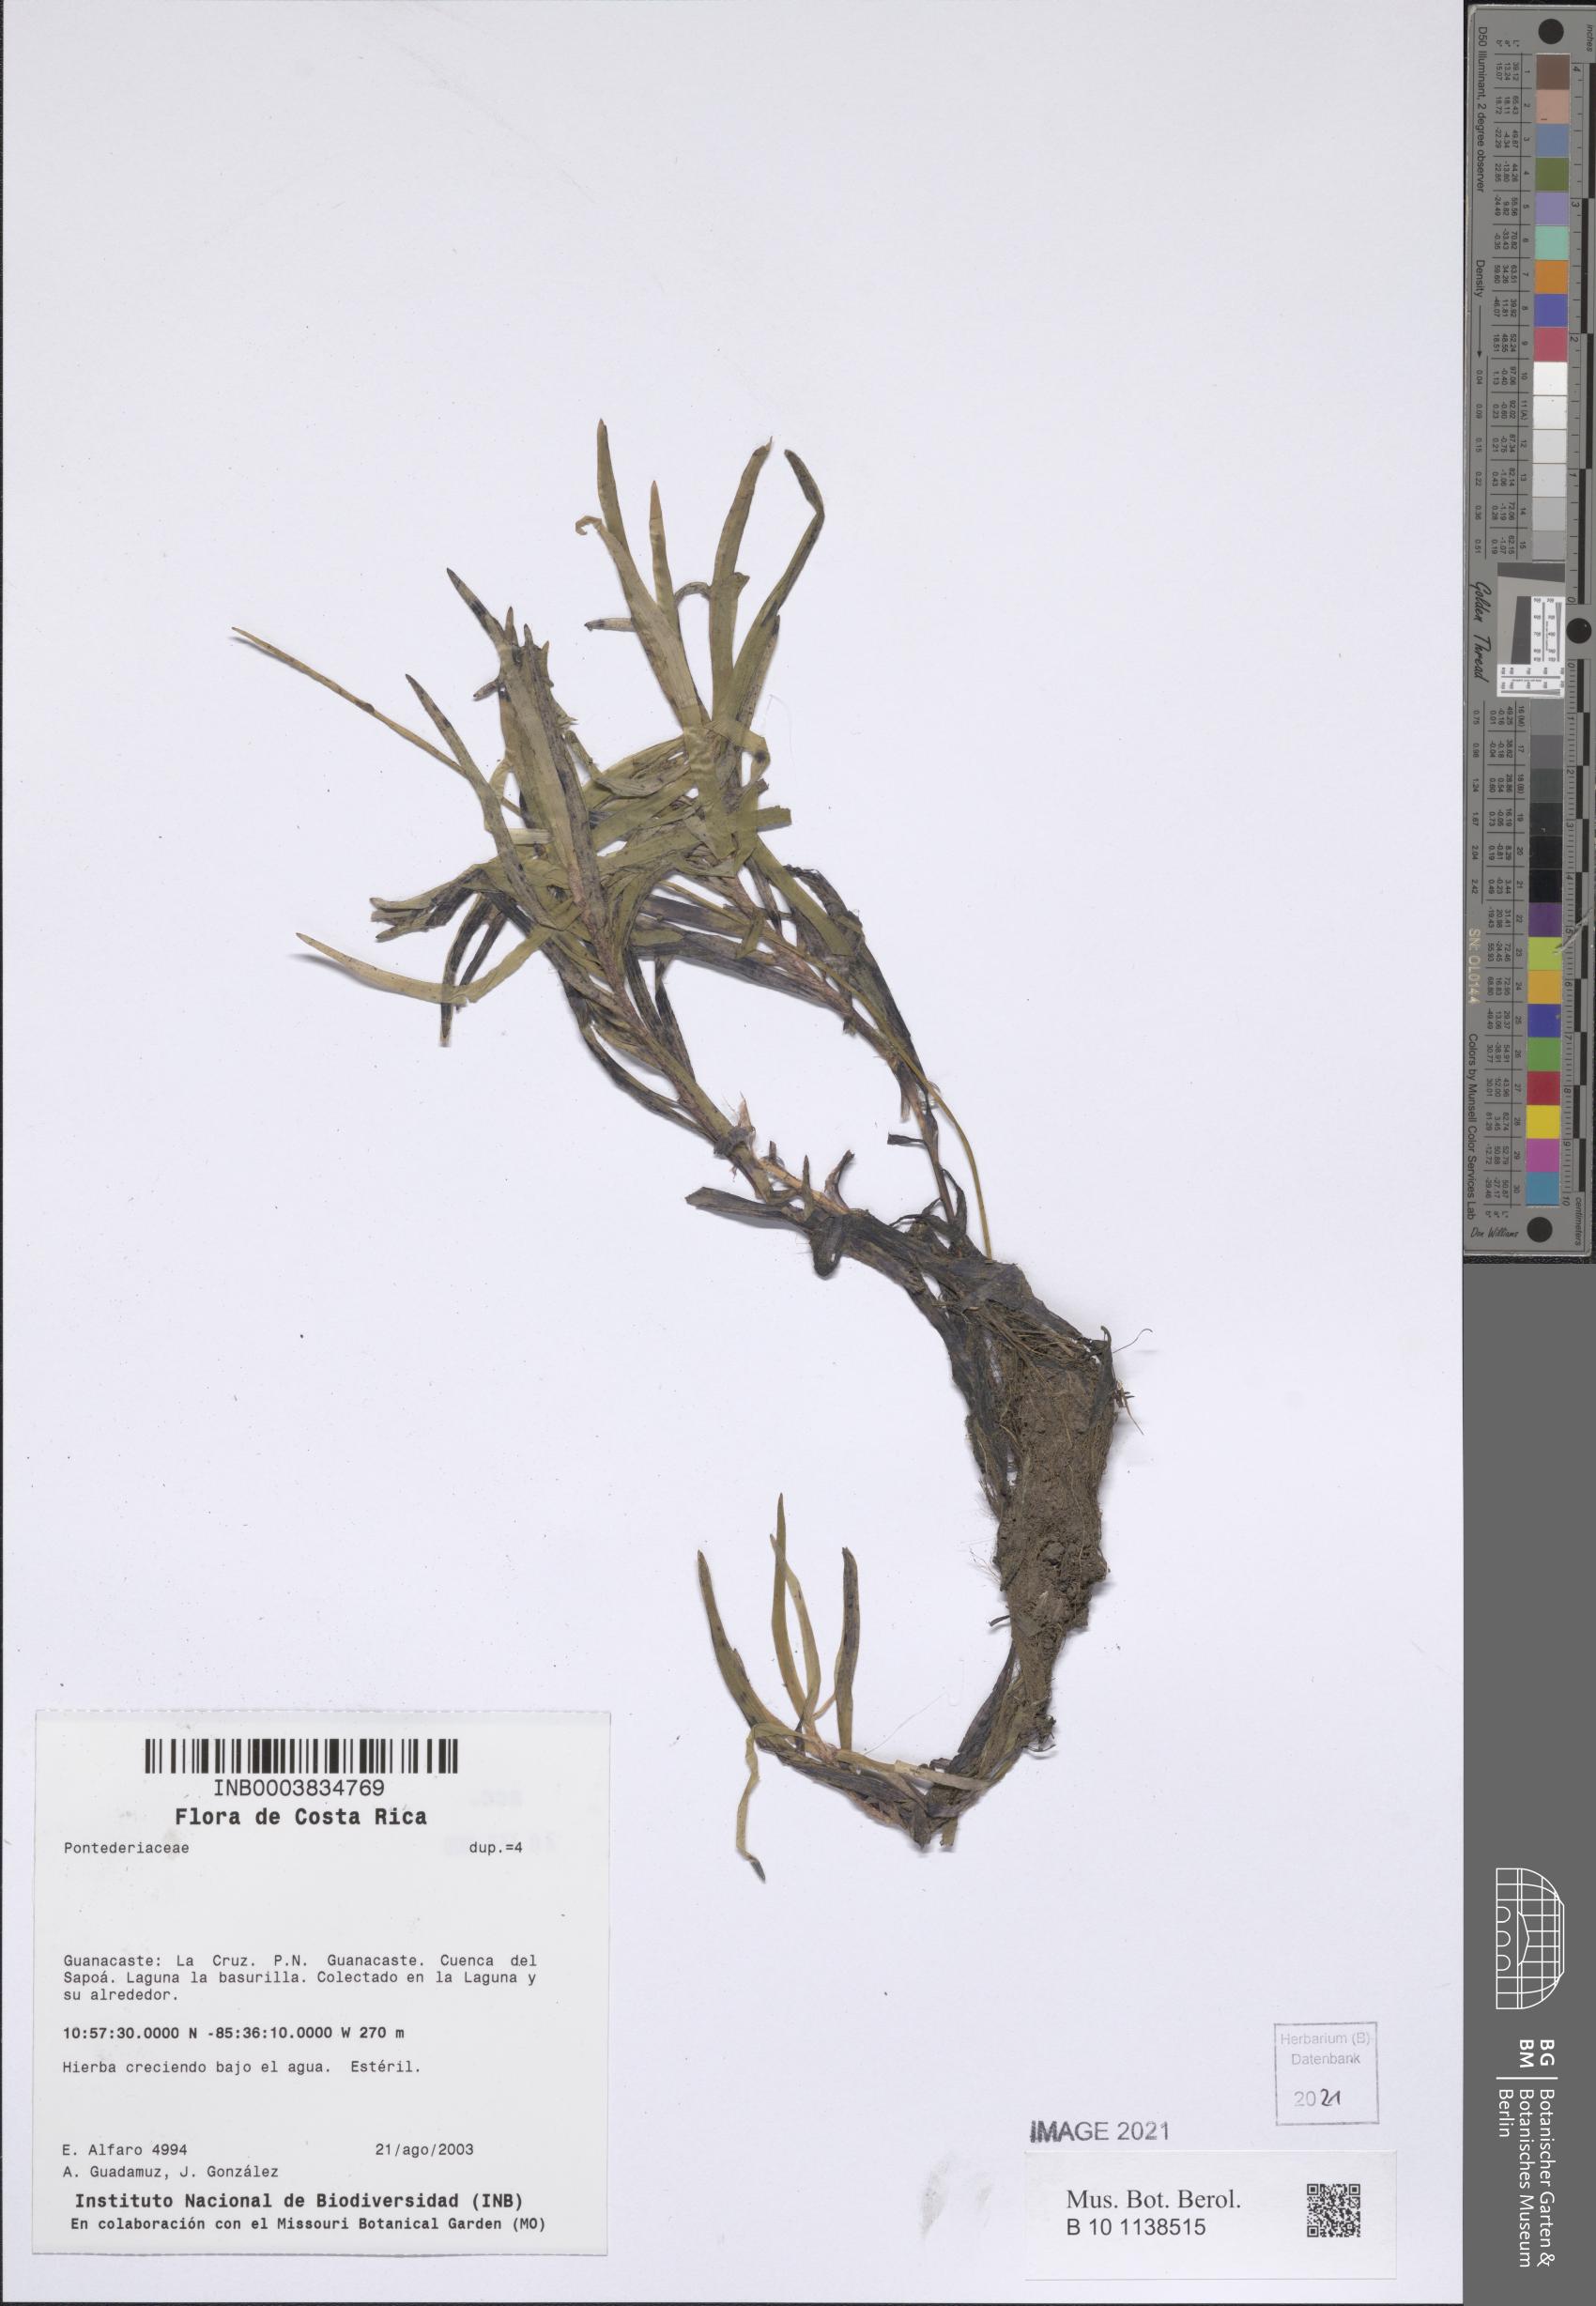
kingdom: Plantae
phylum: Tracheophyta
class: Liliopsida
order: Commelinales
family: Pontederiaceae
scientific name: Pontederiaceae
